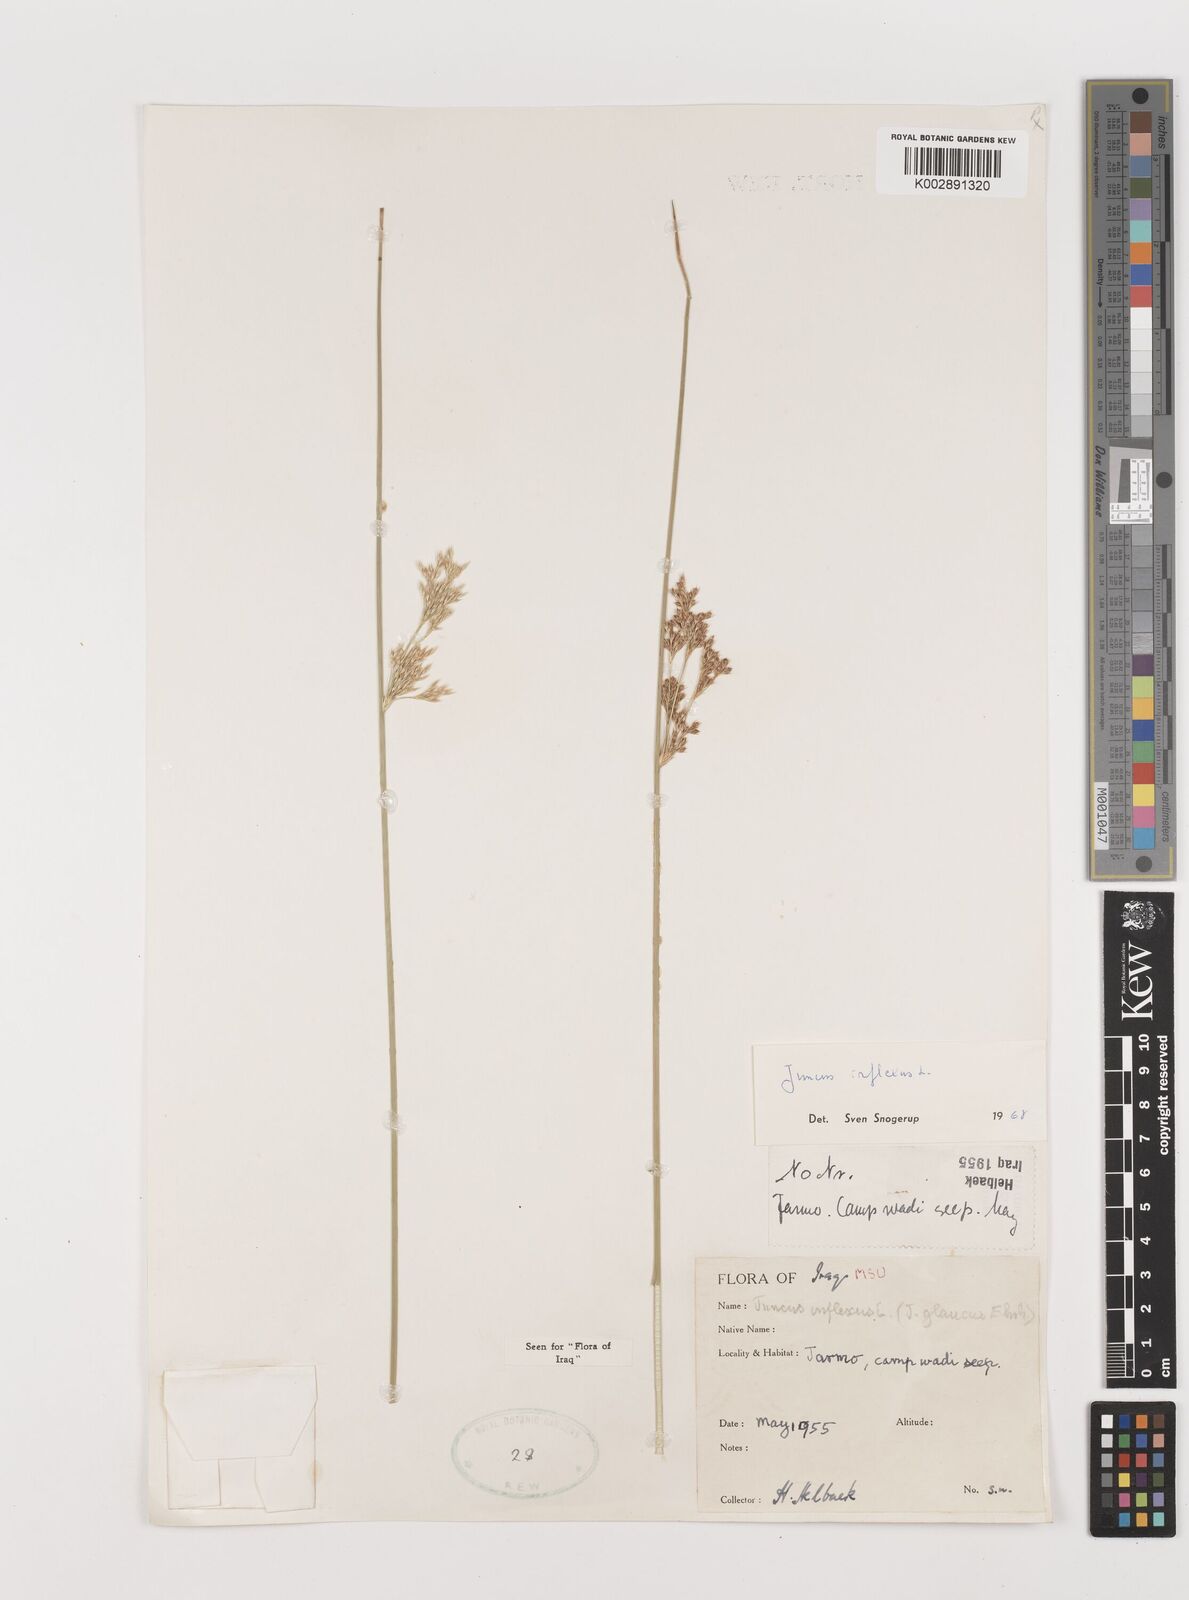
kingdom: Plantae
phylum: Tracheophyta
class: Liliopsida
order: Poales
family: Juncaceae
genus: Juncus
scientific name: Juncus inflexus
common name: Hard rush
